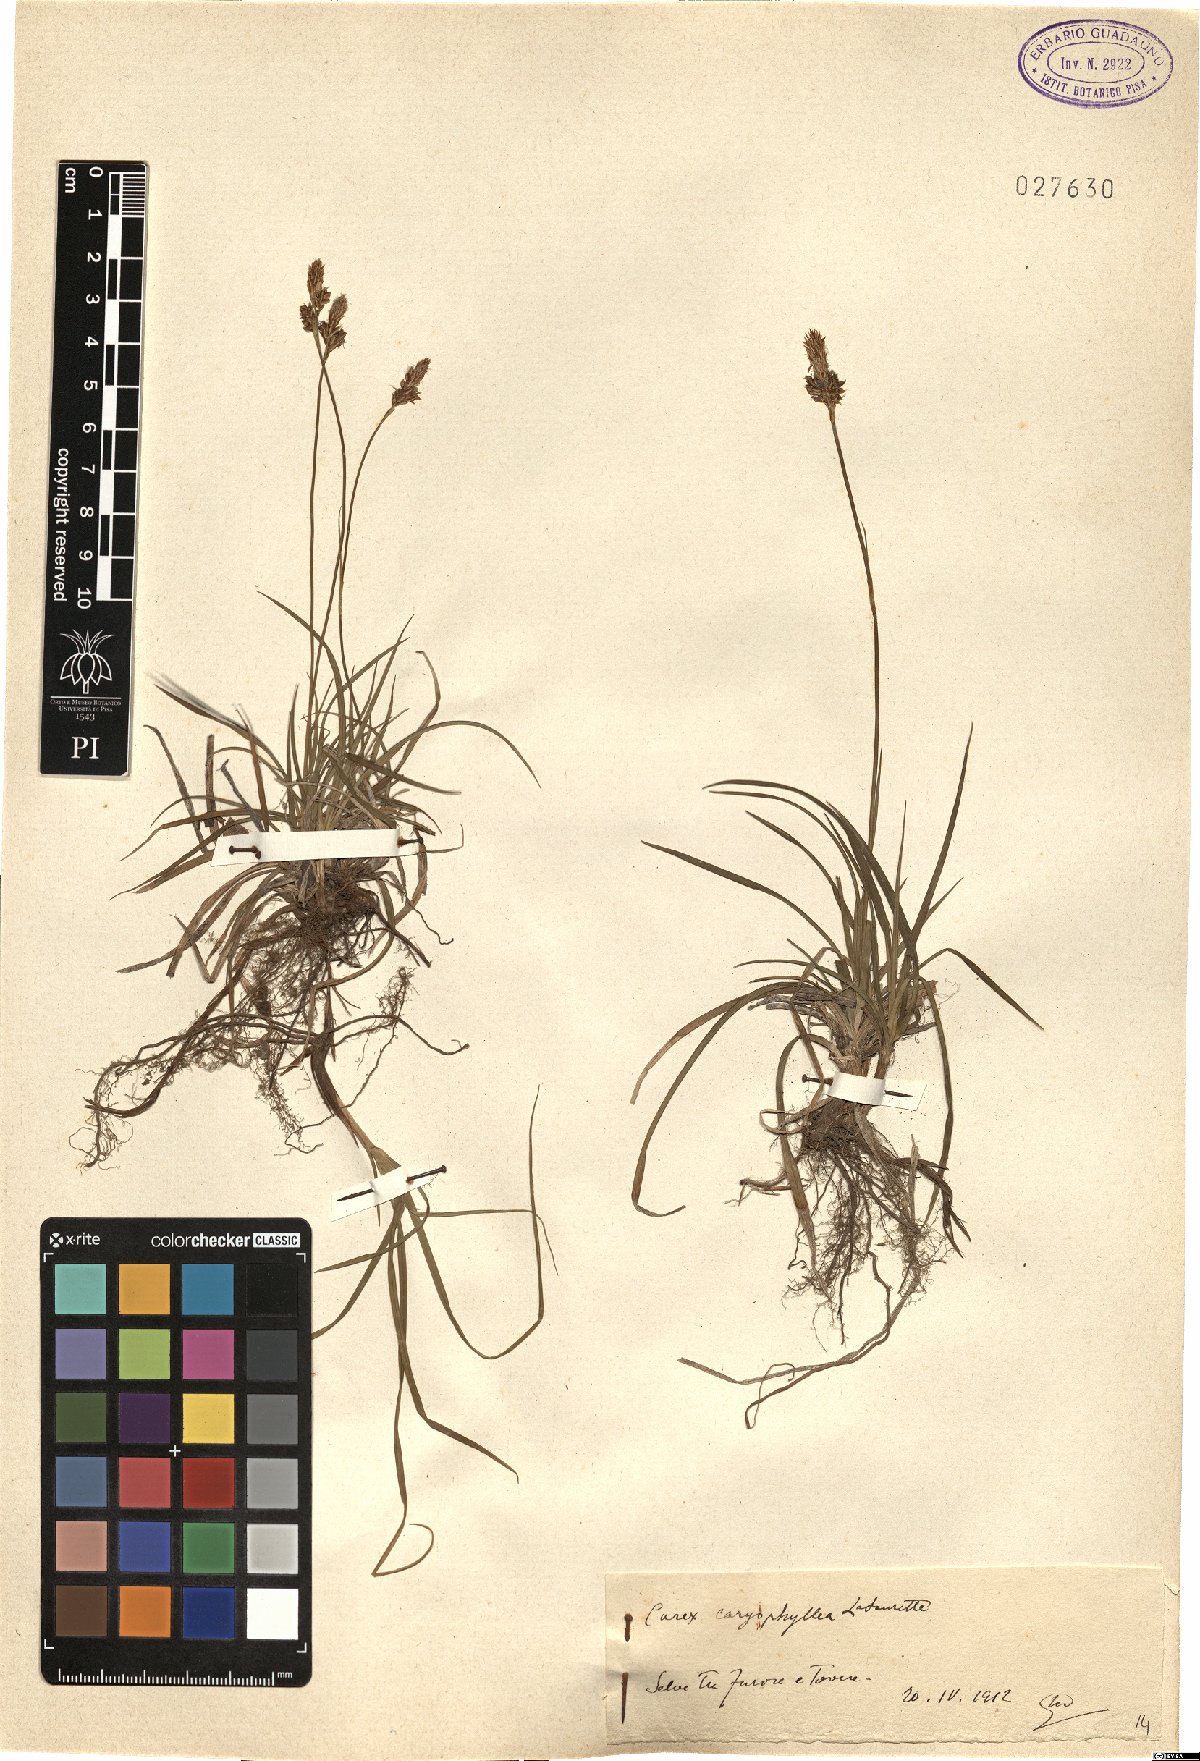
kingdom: Plantae
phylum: Tracheophyta
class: Liliopsida
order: Poales
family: Cyperaceae
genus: Carex
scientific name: Carex caryophyllea
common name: Spring sedge
